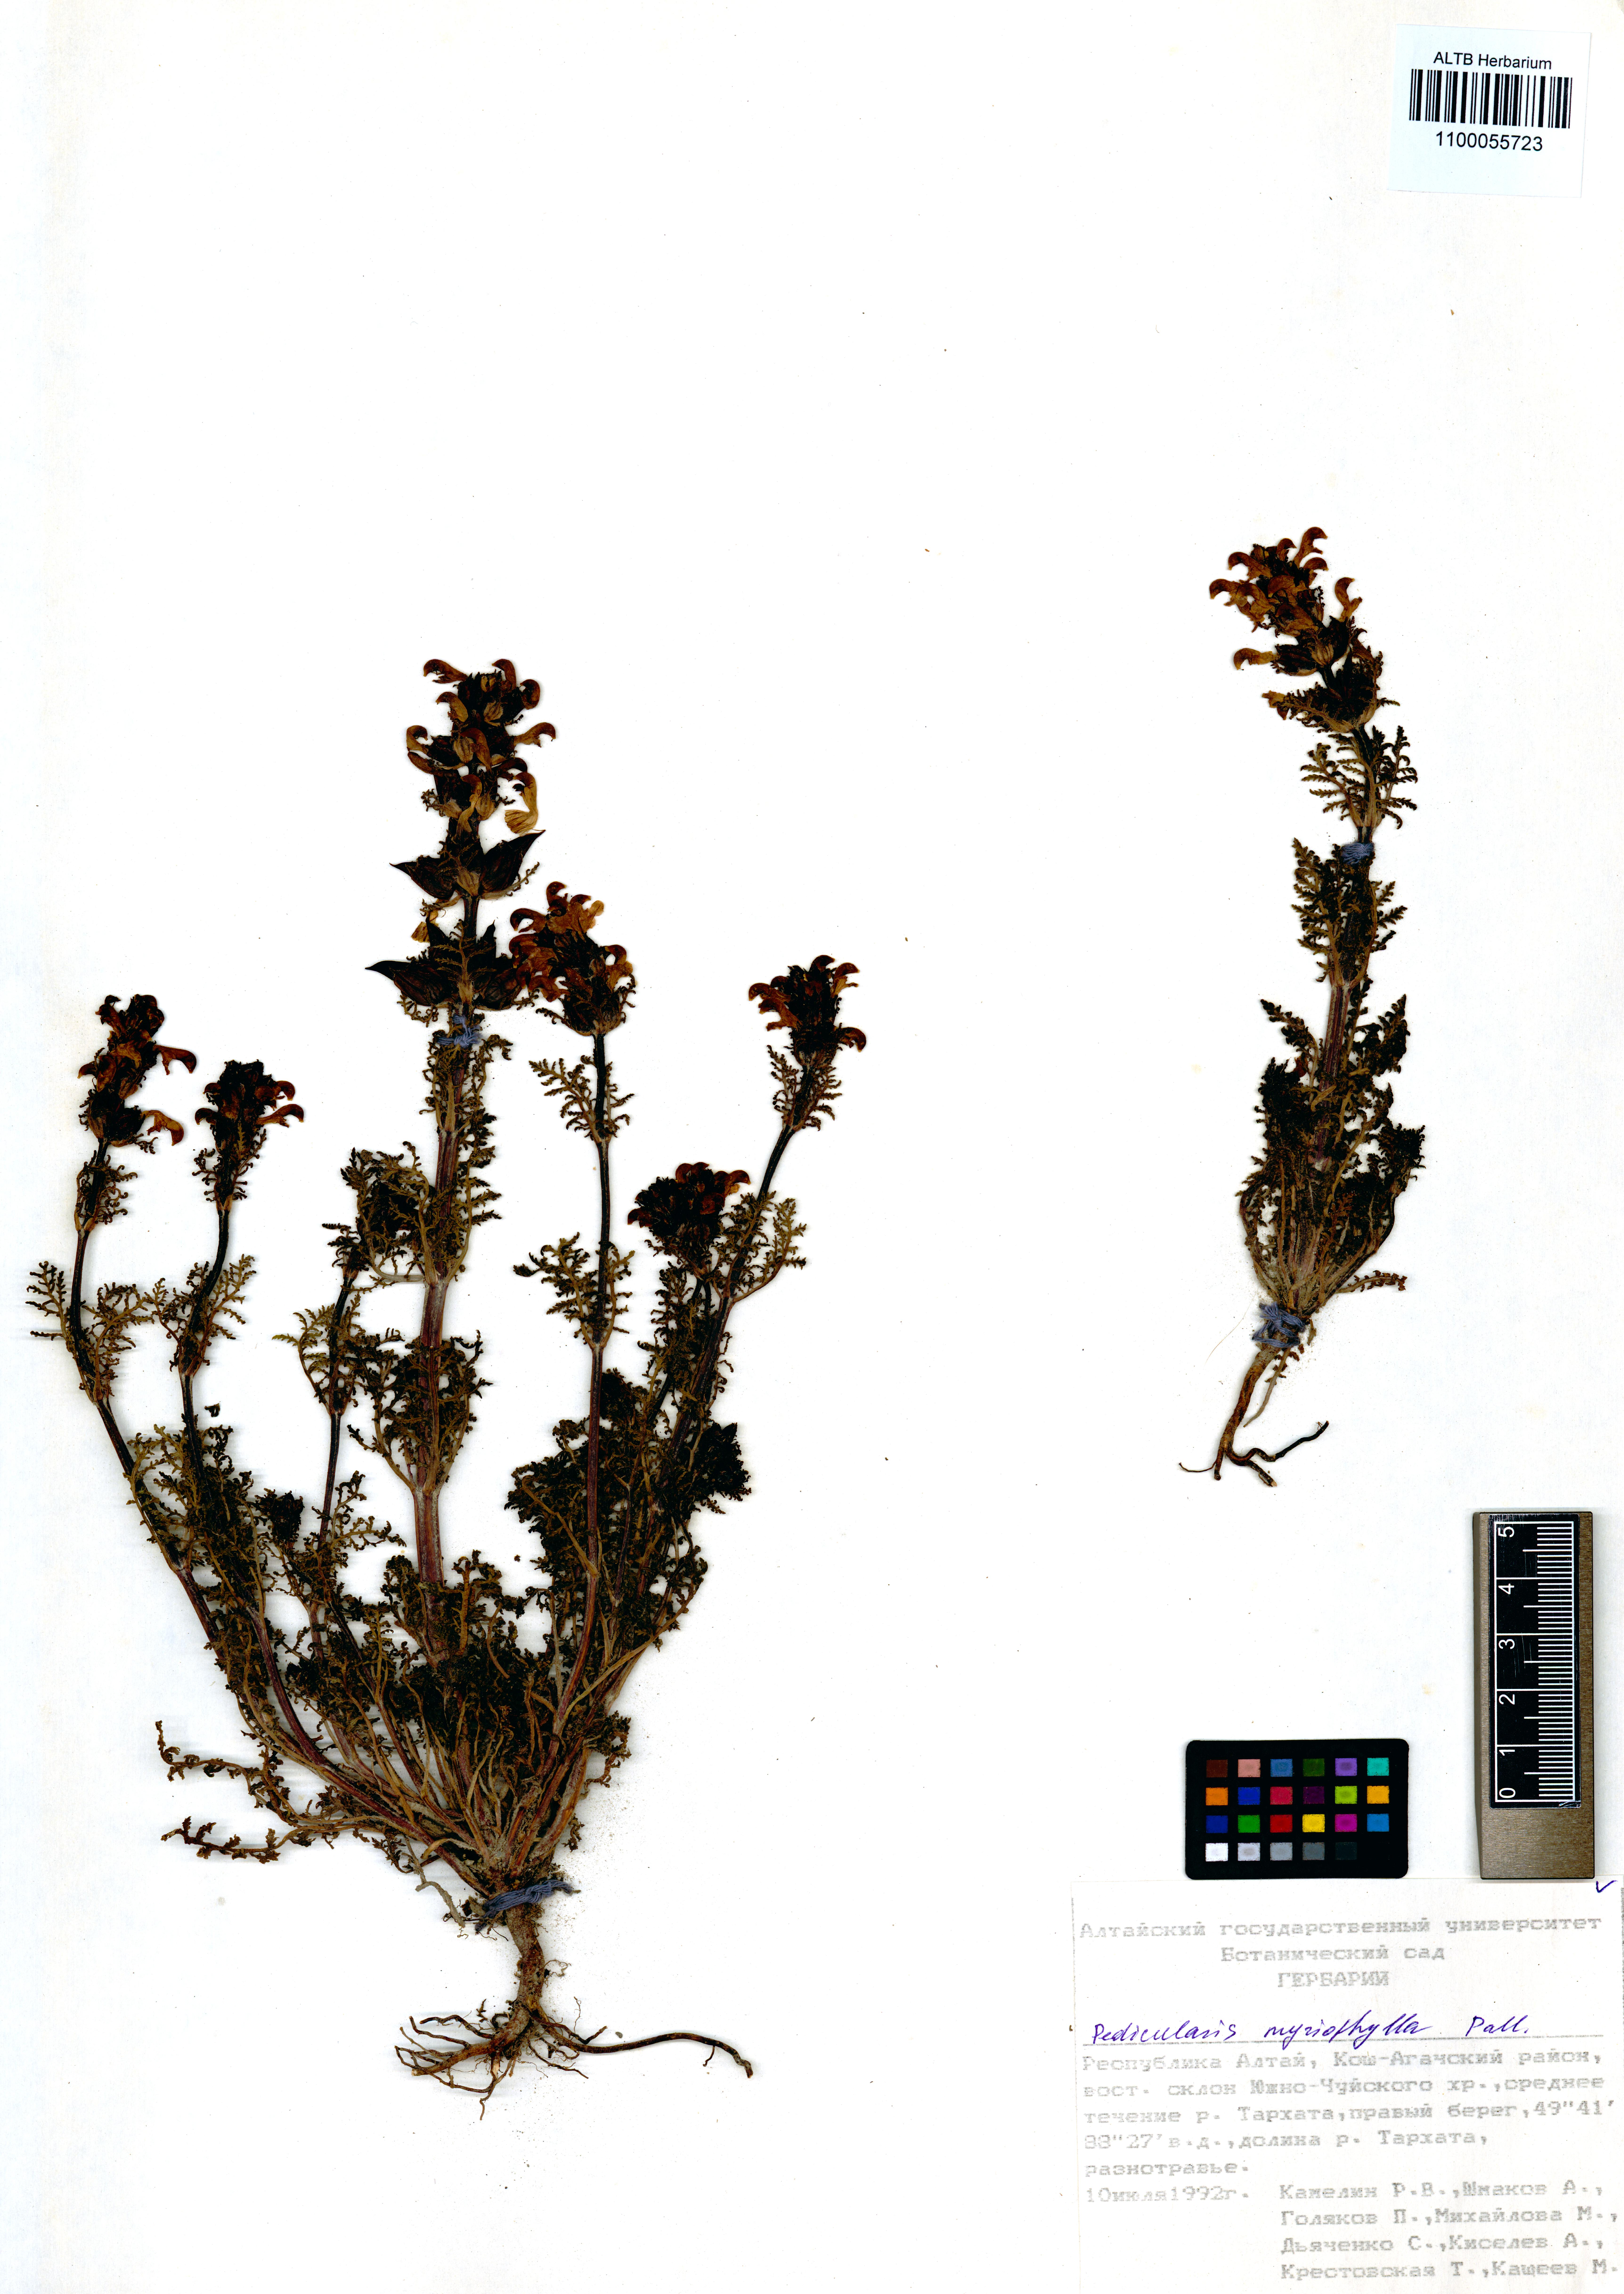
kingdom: Plantae
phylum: Tracheophyta
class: Magnoliopsida
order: Lamiales
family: Orobanchaceae
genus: Pedicularis
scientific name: Pedicularis myriophylla
